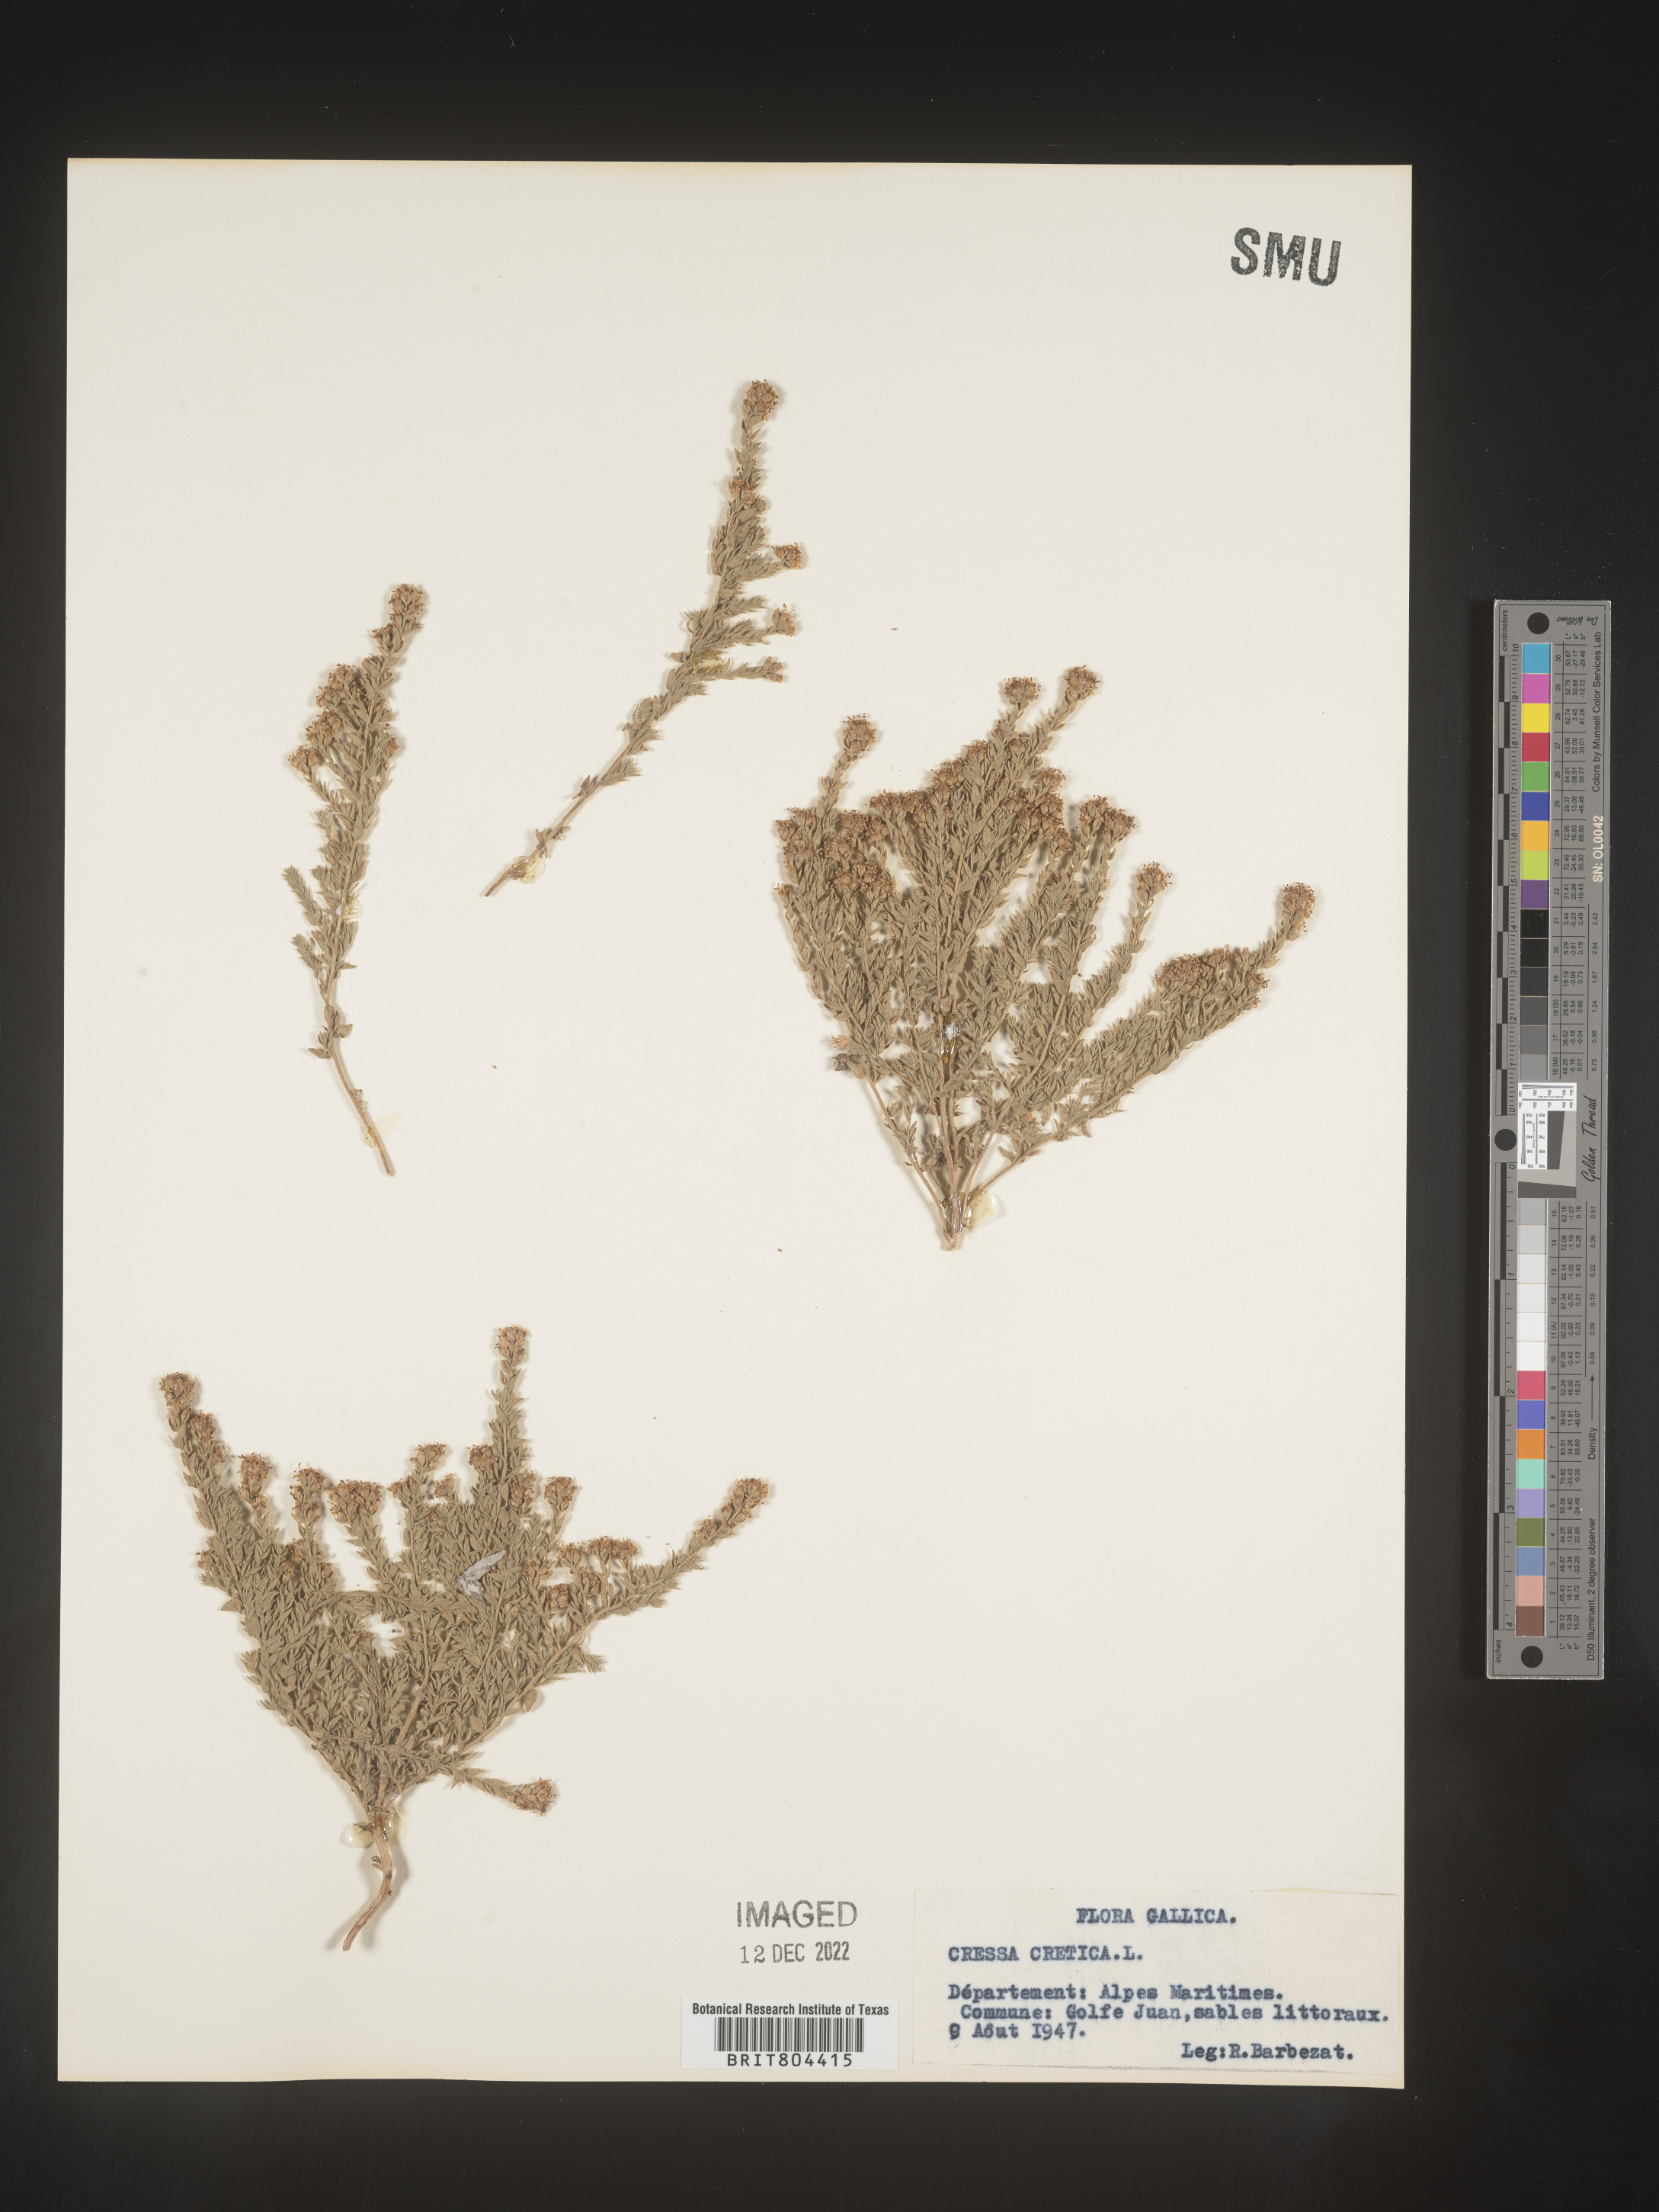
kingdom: Plantae
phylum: Tracheophyta
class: Magnoliopsida
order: Solanales
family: Convolvulaceae
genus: Cressa
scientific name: Cressa
